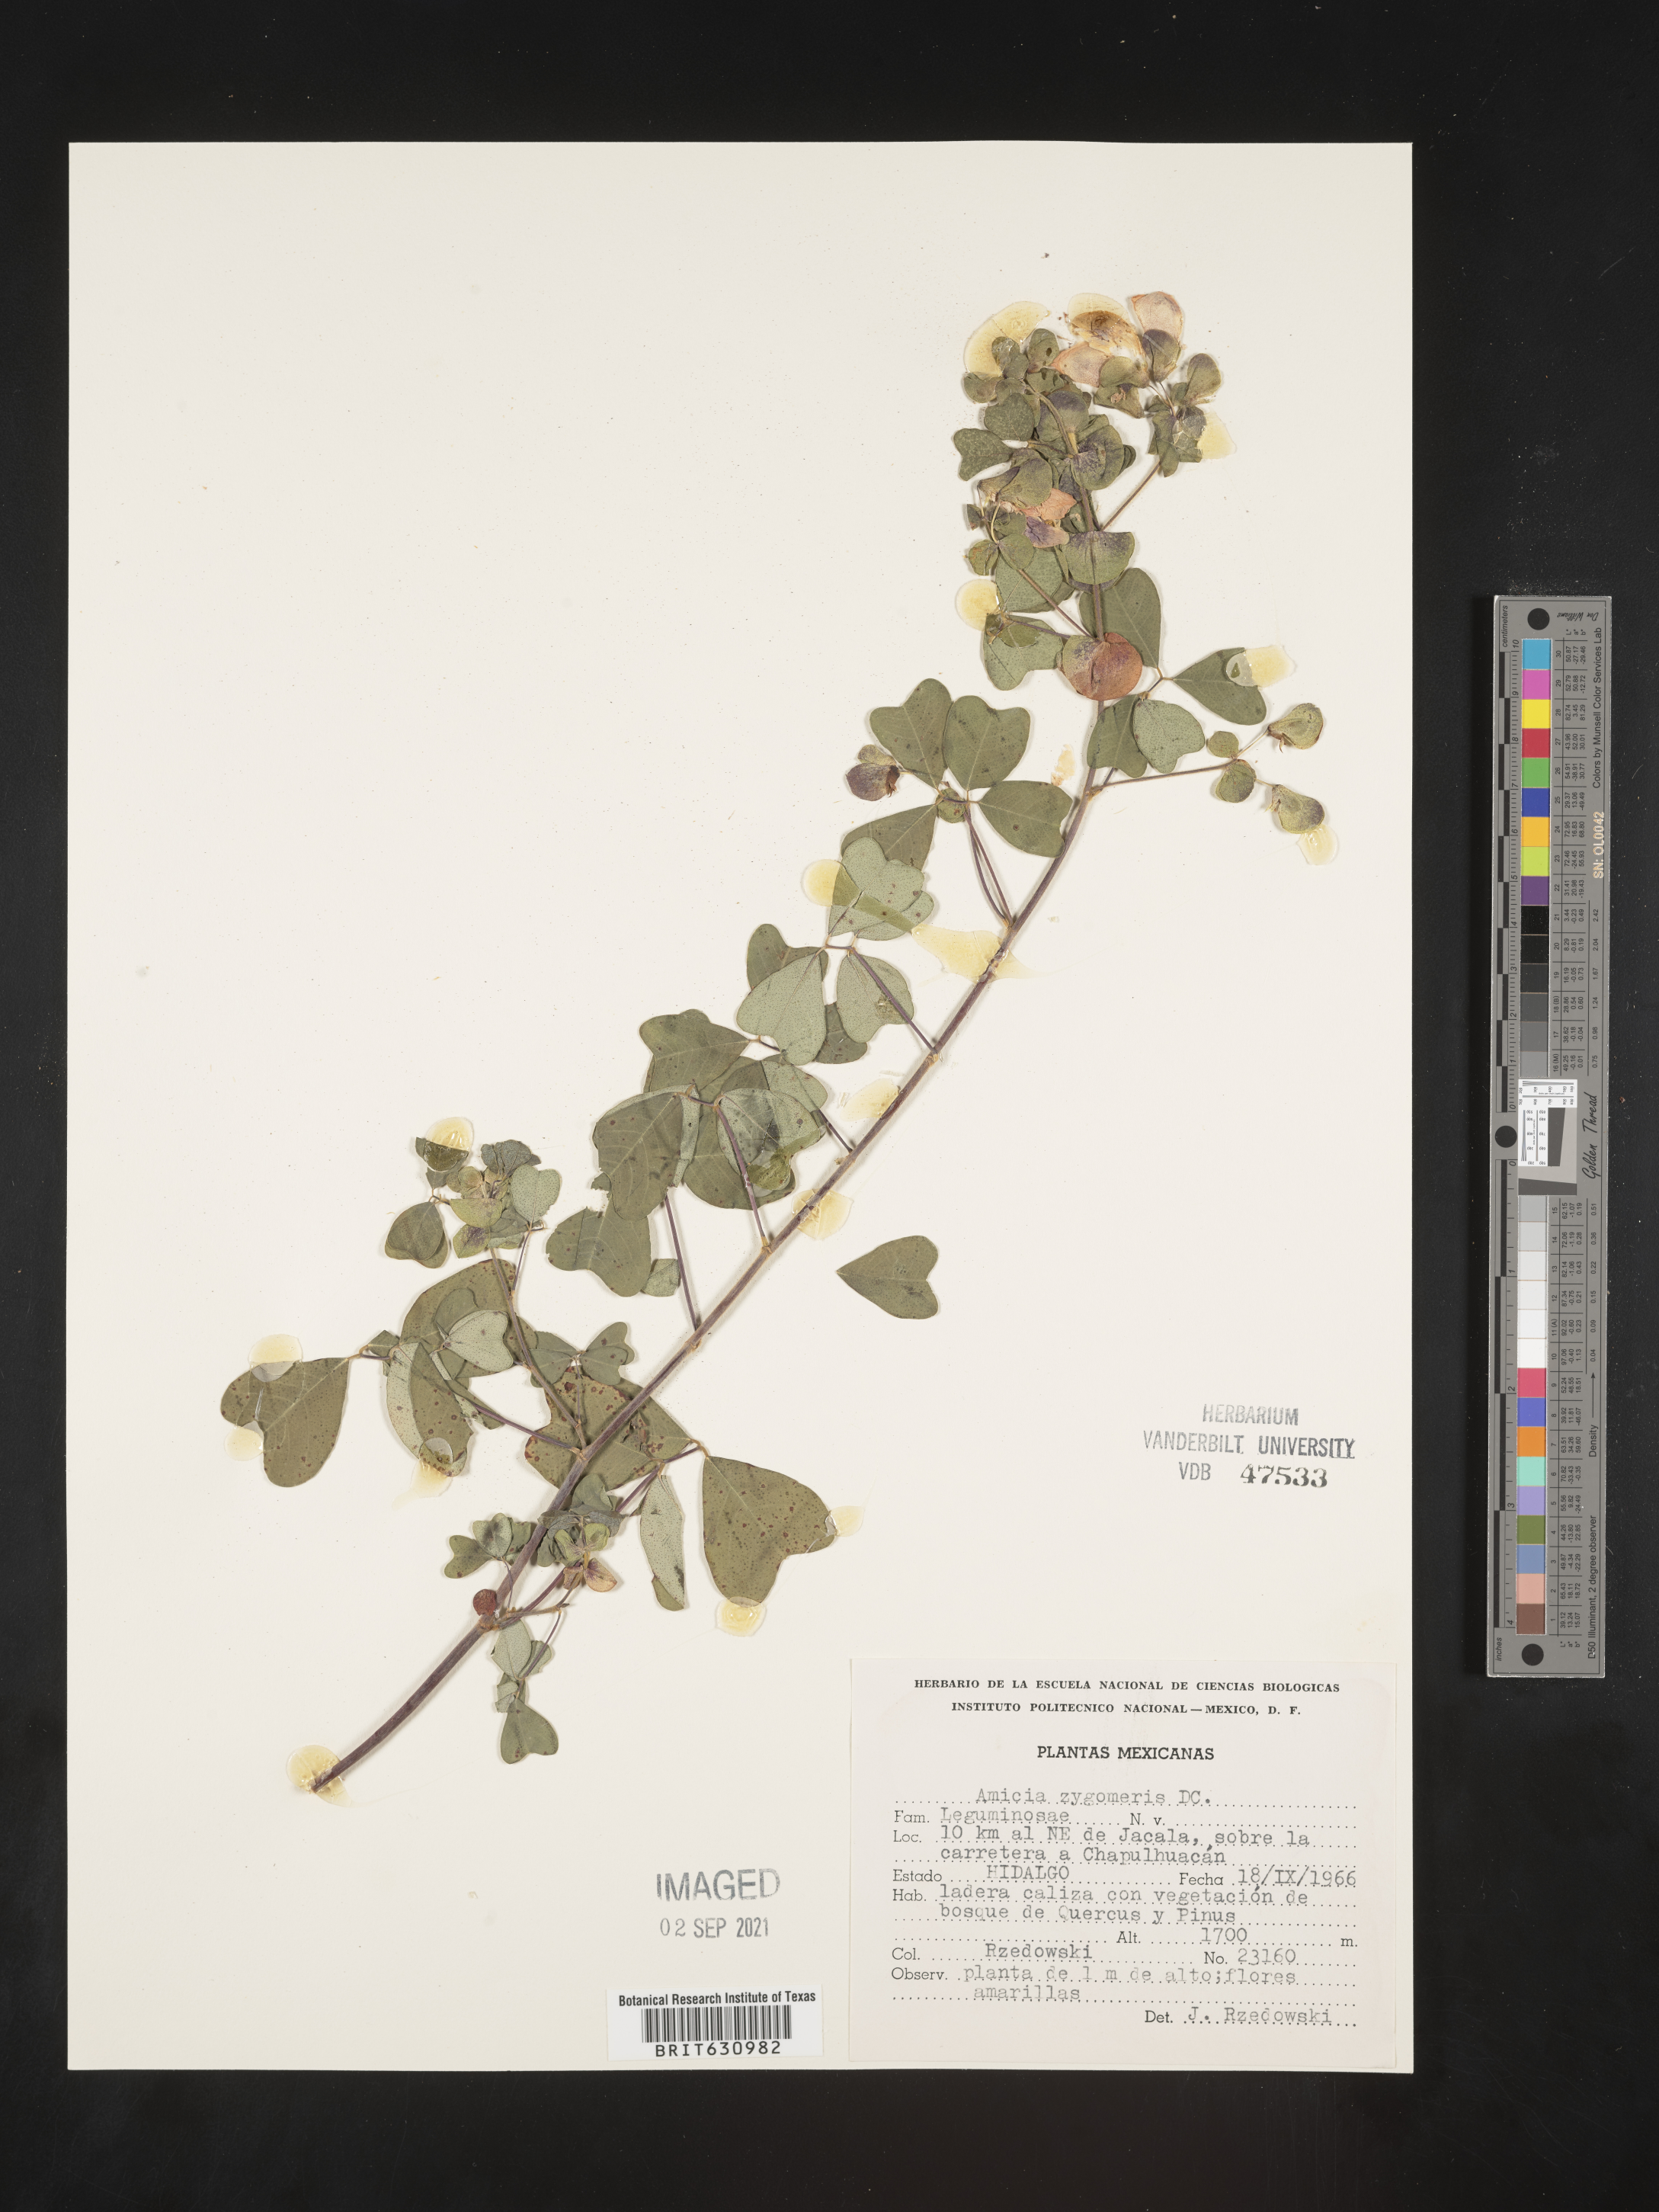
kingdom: Plantae
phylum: Tracheophyta
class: Magnoliopsida
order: Fabales
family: Fabaceae
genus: Amicia
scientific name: Amicia
